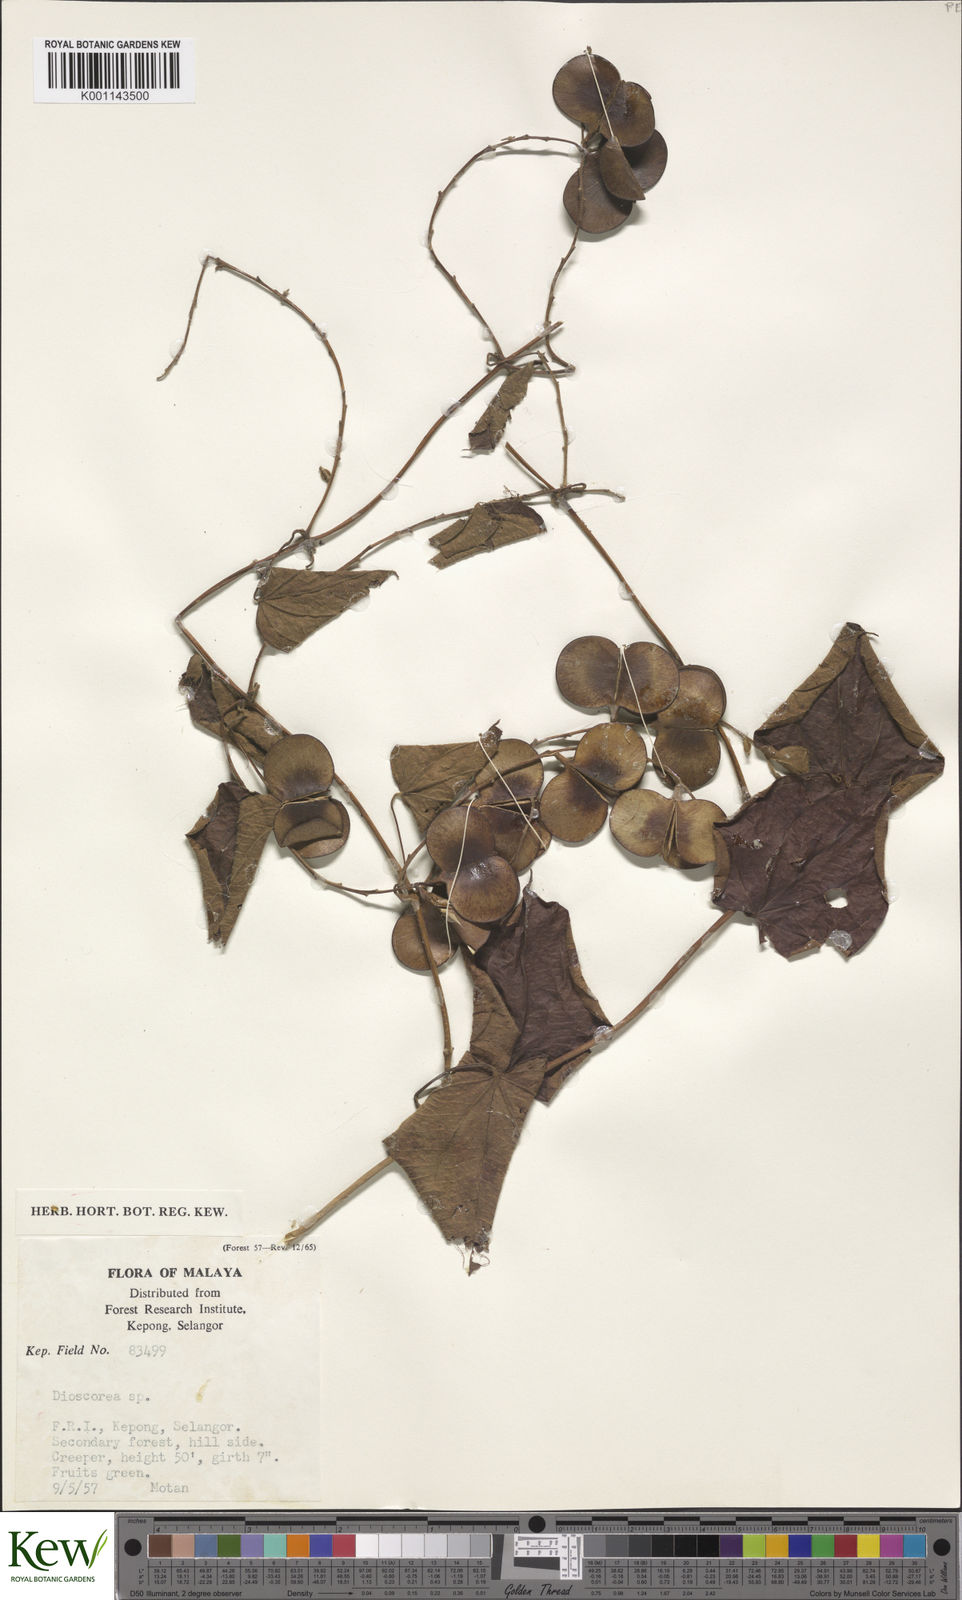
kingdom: Plantae
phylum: Tracheophyta
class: Liliopsida
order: Dioscoreales
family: Dioscoreaceae
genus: Dioscorea
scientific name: Dioscorea
